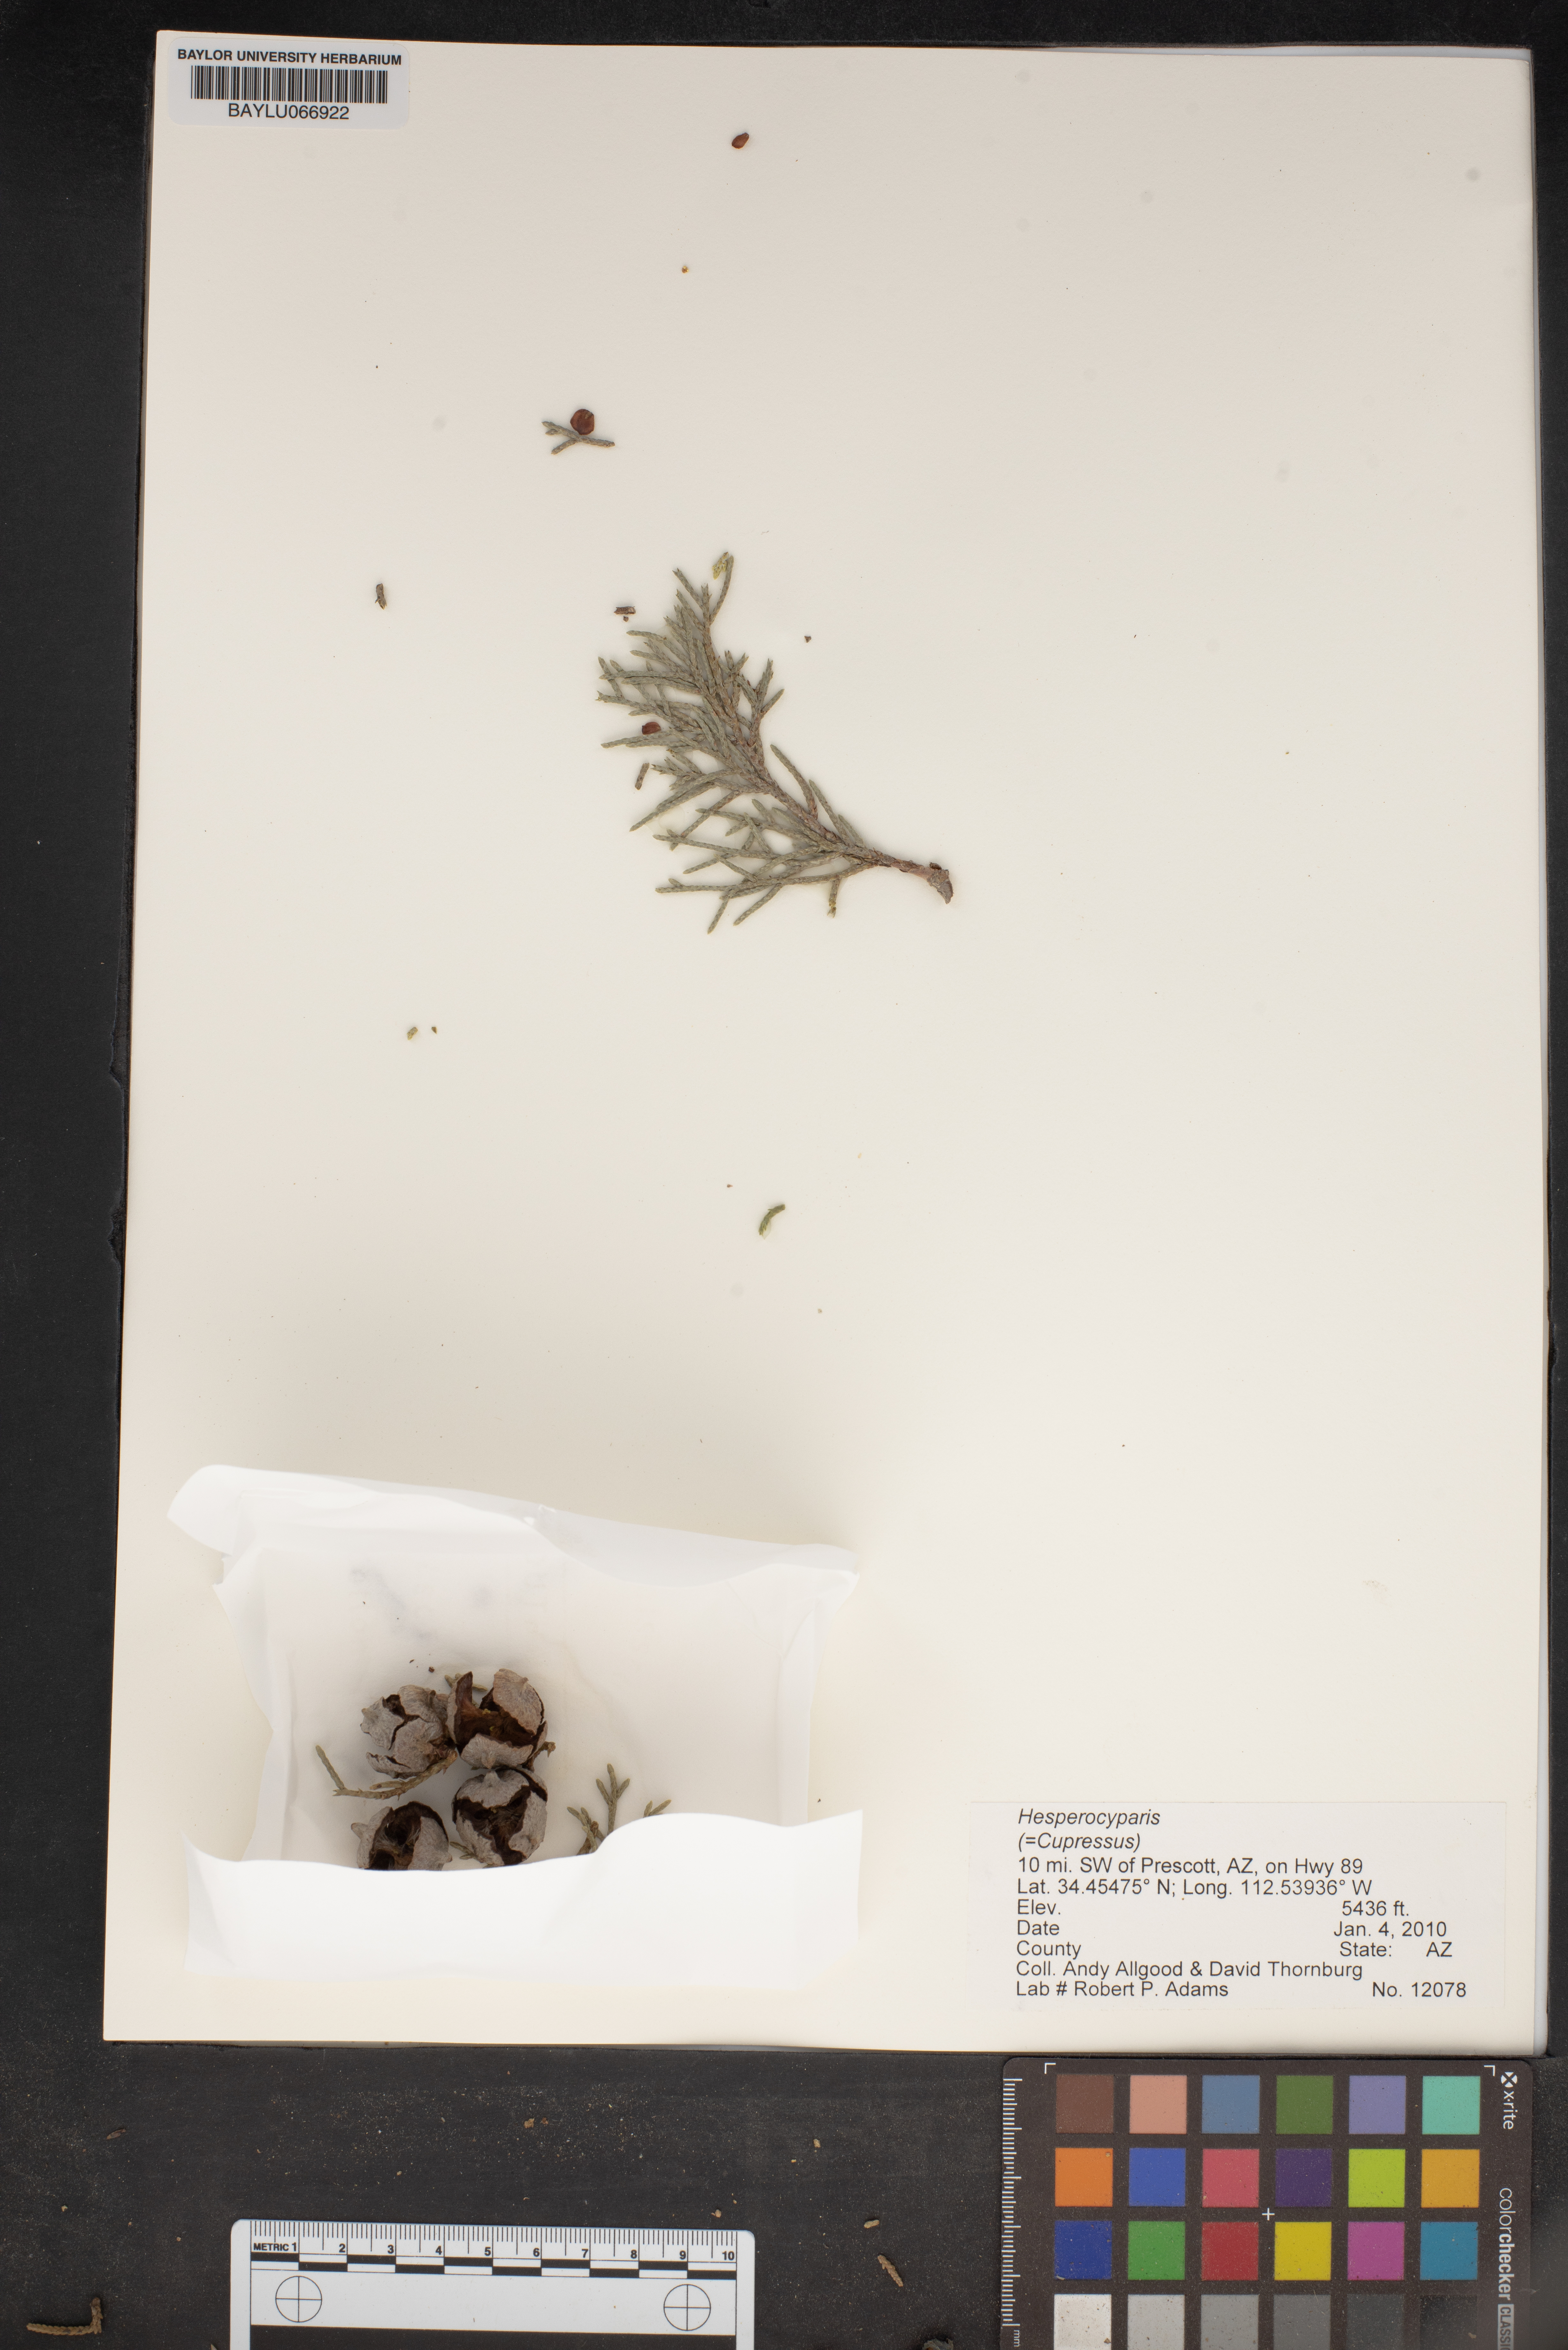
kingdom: Plantae
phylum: Tracheophyta
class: Pinopsida
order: Pinales
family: Cupressaceae
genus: Hesperocyparis
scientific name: Hesperocyparis
